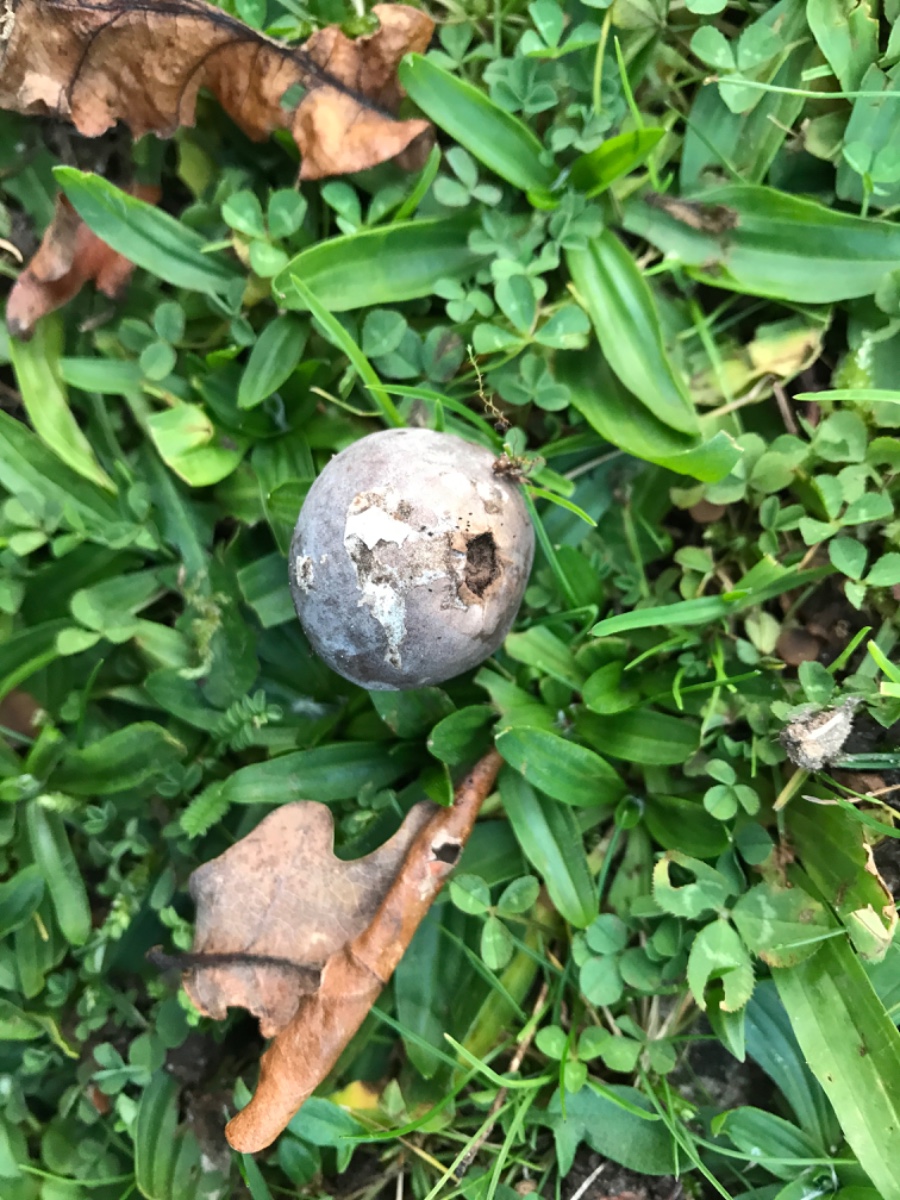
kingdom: Fungi
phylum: Basidiomycota
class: Agaricomycetes
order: Agaricales
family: Lycoperdaceae
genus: Bovista
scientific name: Bovista plumbea
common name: blygrå bovist
